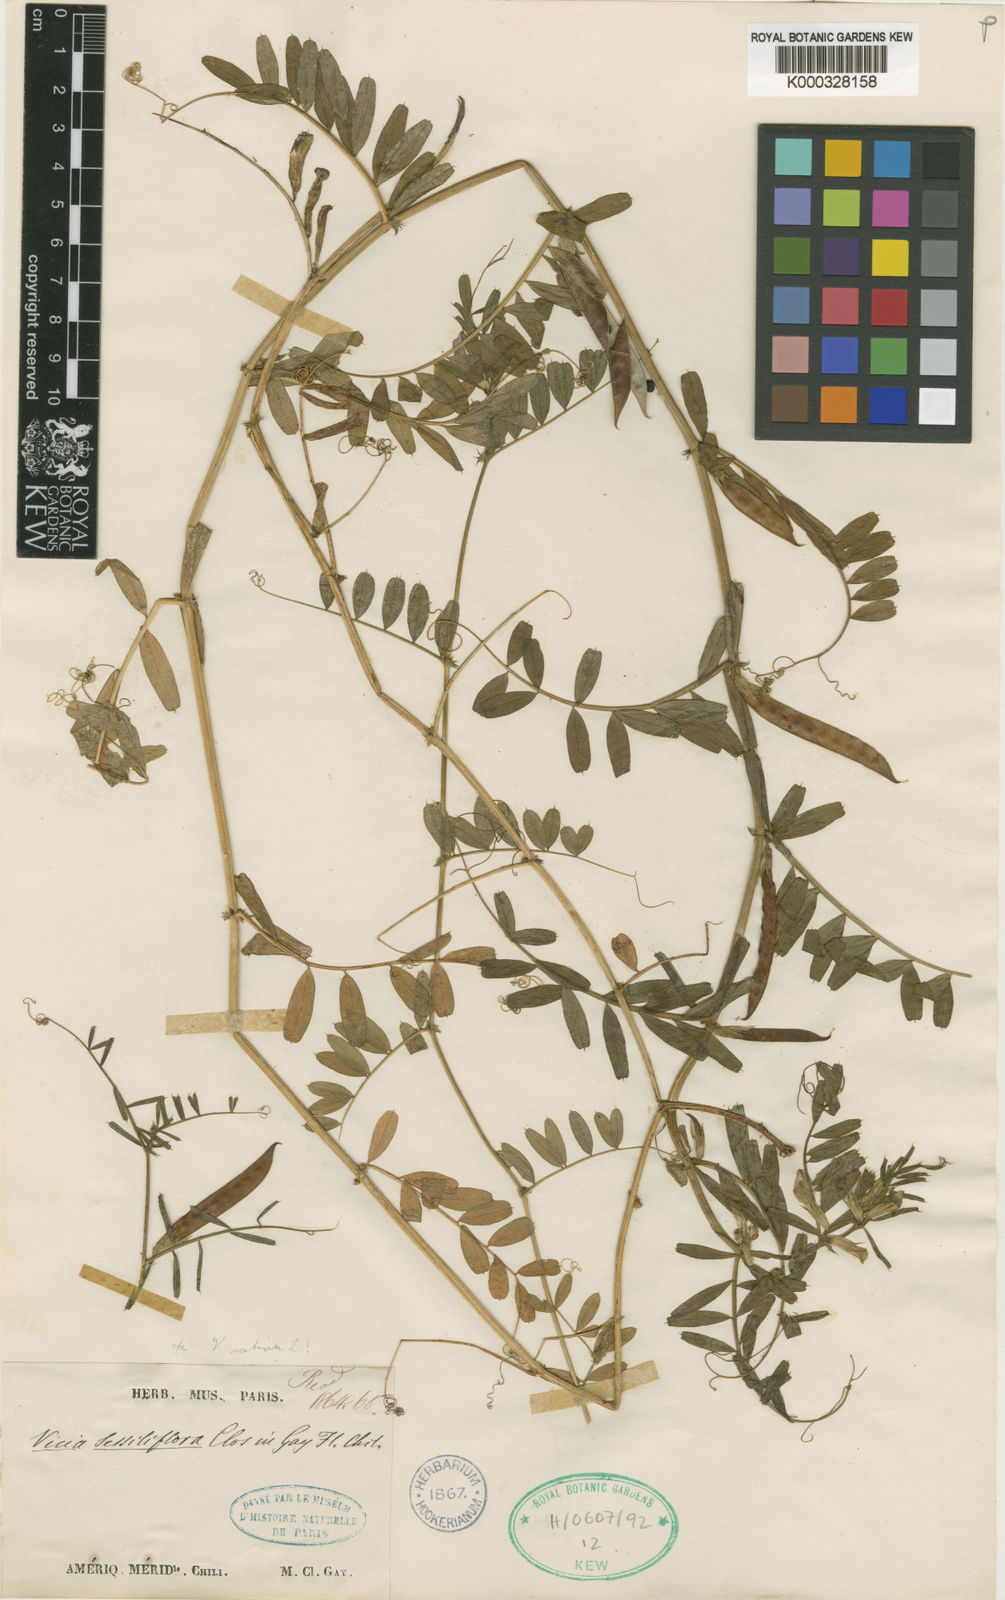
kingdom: Plantae
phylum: Tracheophyta
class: Magnoliopsida
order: Fabales
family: Fabaceae
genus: Vicia
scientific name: Vicia sessiliflora
